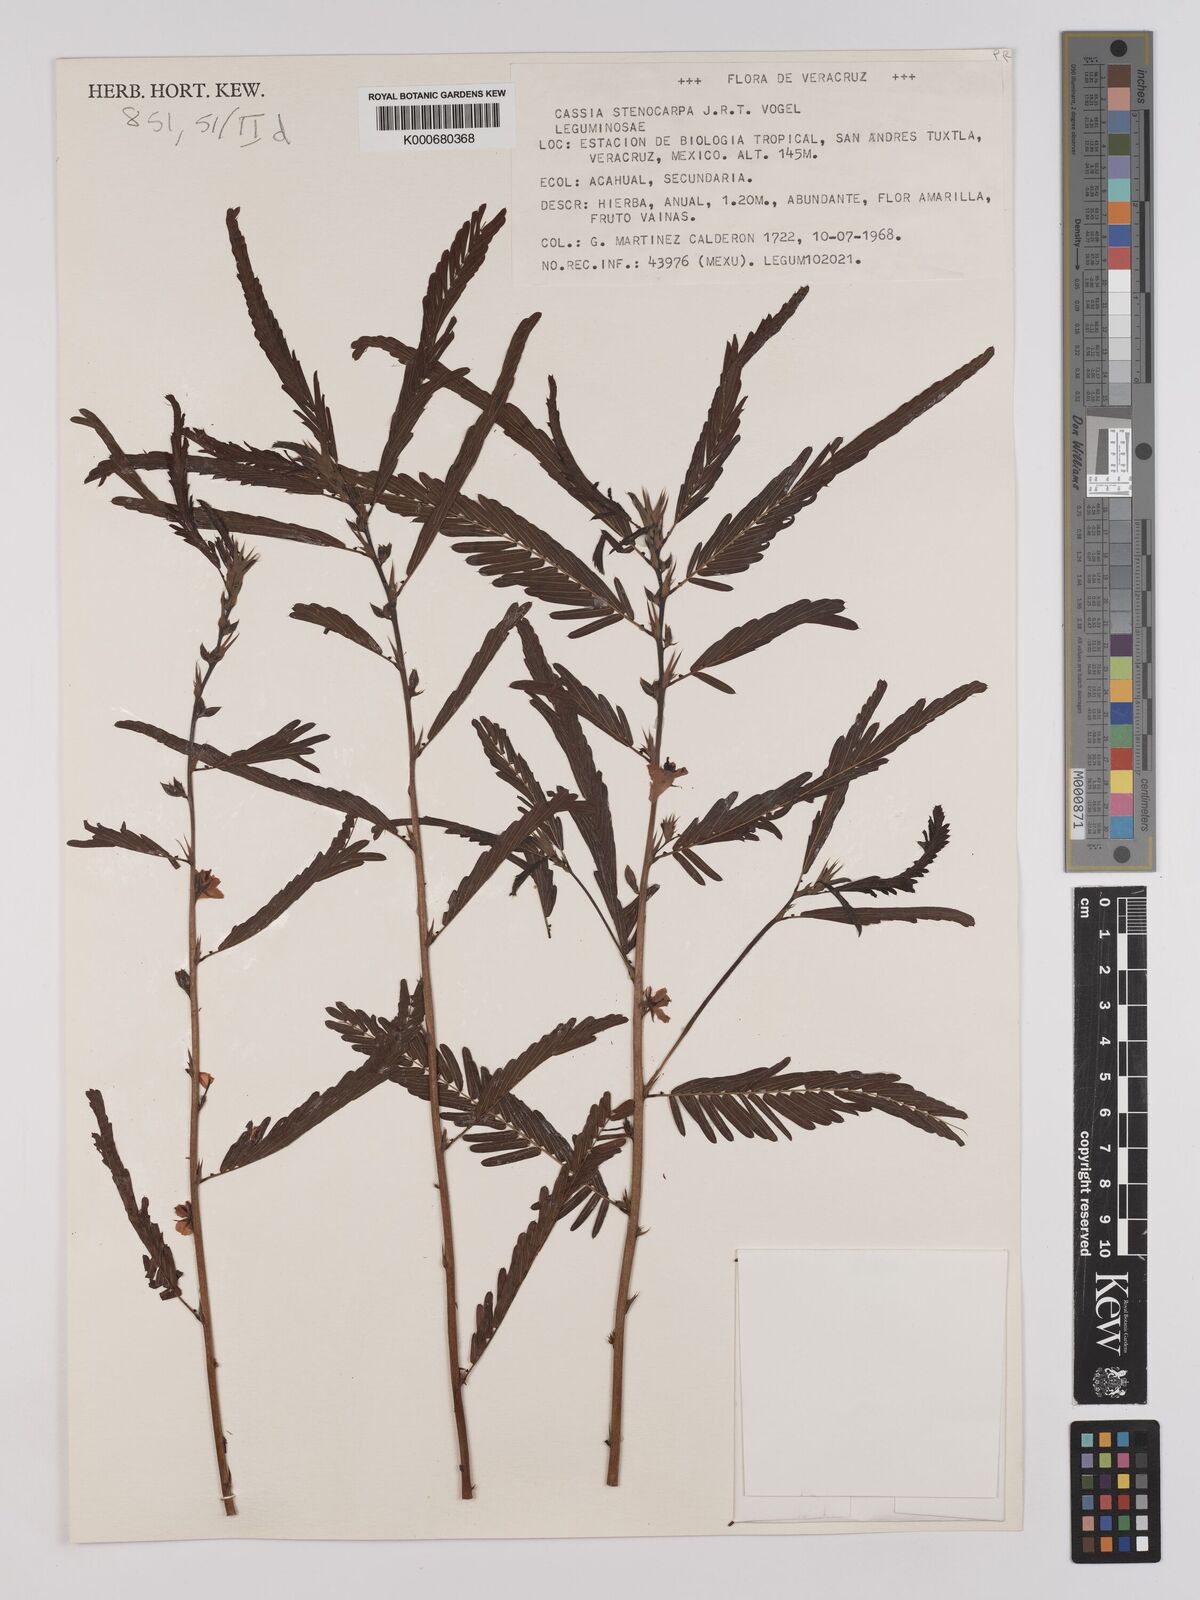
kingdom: Plantae
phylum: Tracheophyta
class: Magnoliopsida
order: Fabales
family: Fabaceae
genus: Chamaecrista
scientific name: Chamaecrista nictitans
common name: Sensitive cassia
